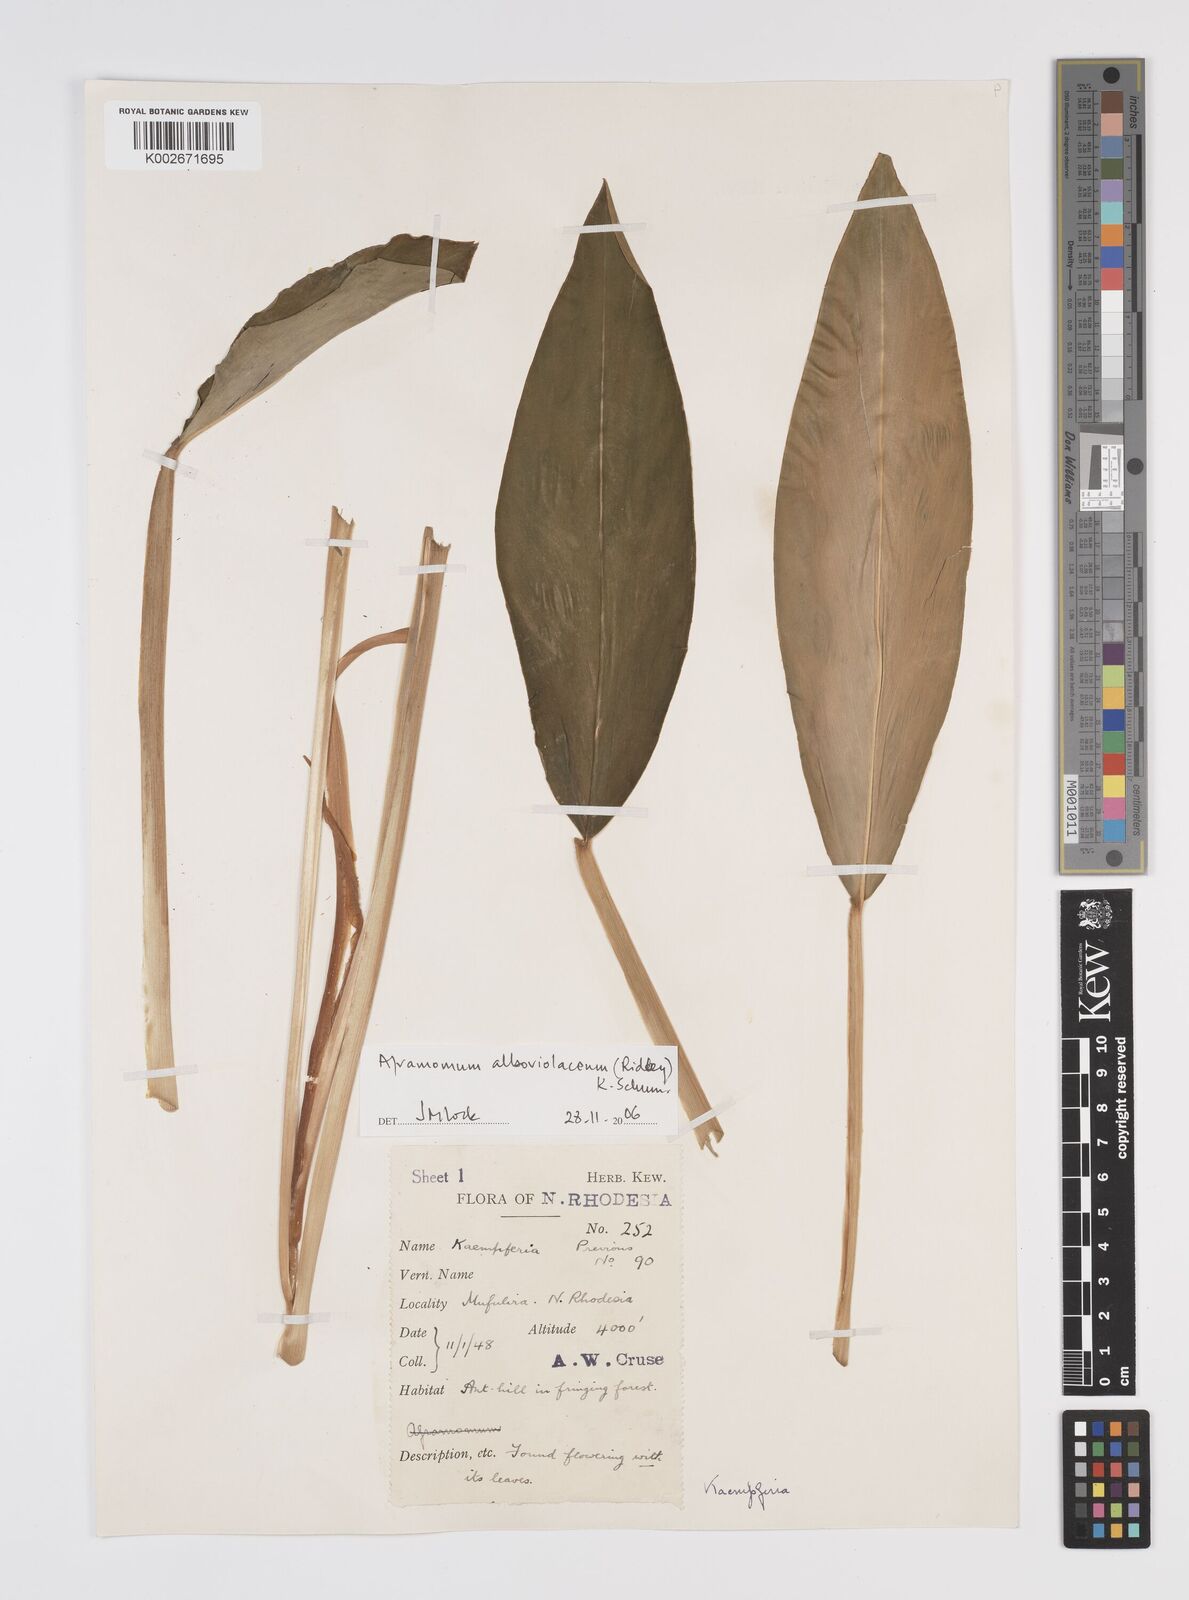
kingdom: Plantae
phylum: Tracheophyta
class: Liliopsida
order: Zingiberales
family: Zingiberaceae
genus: Aframomum
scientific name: Aframomum alboviolaceum
